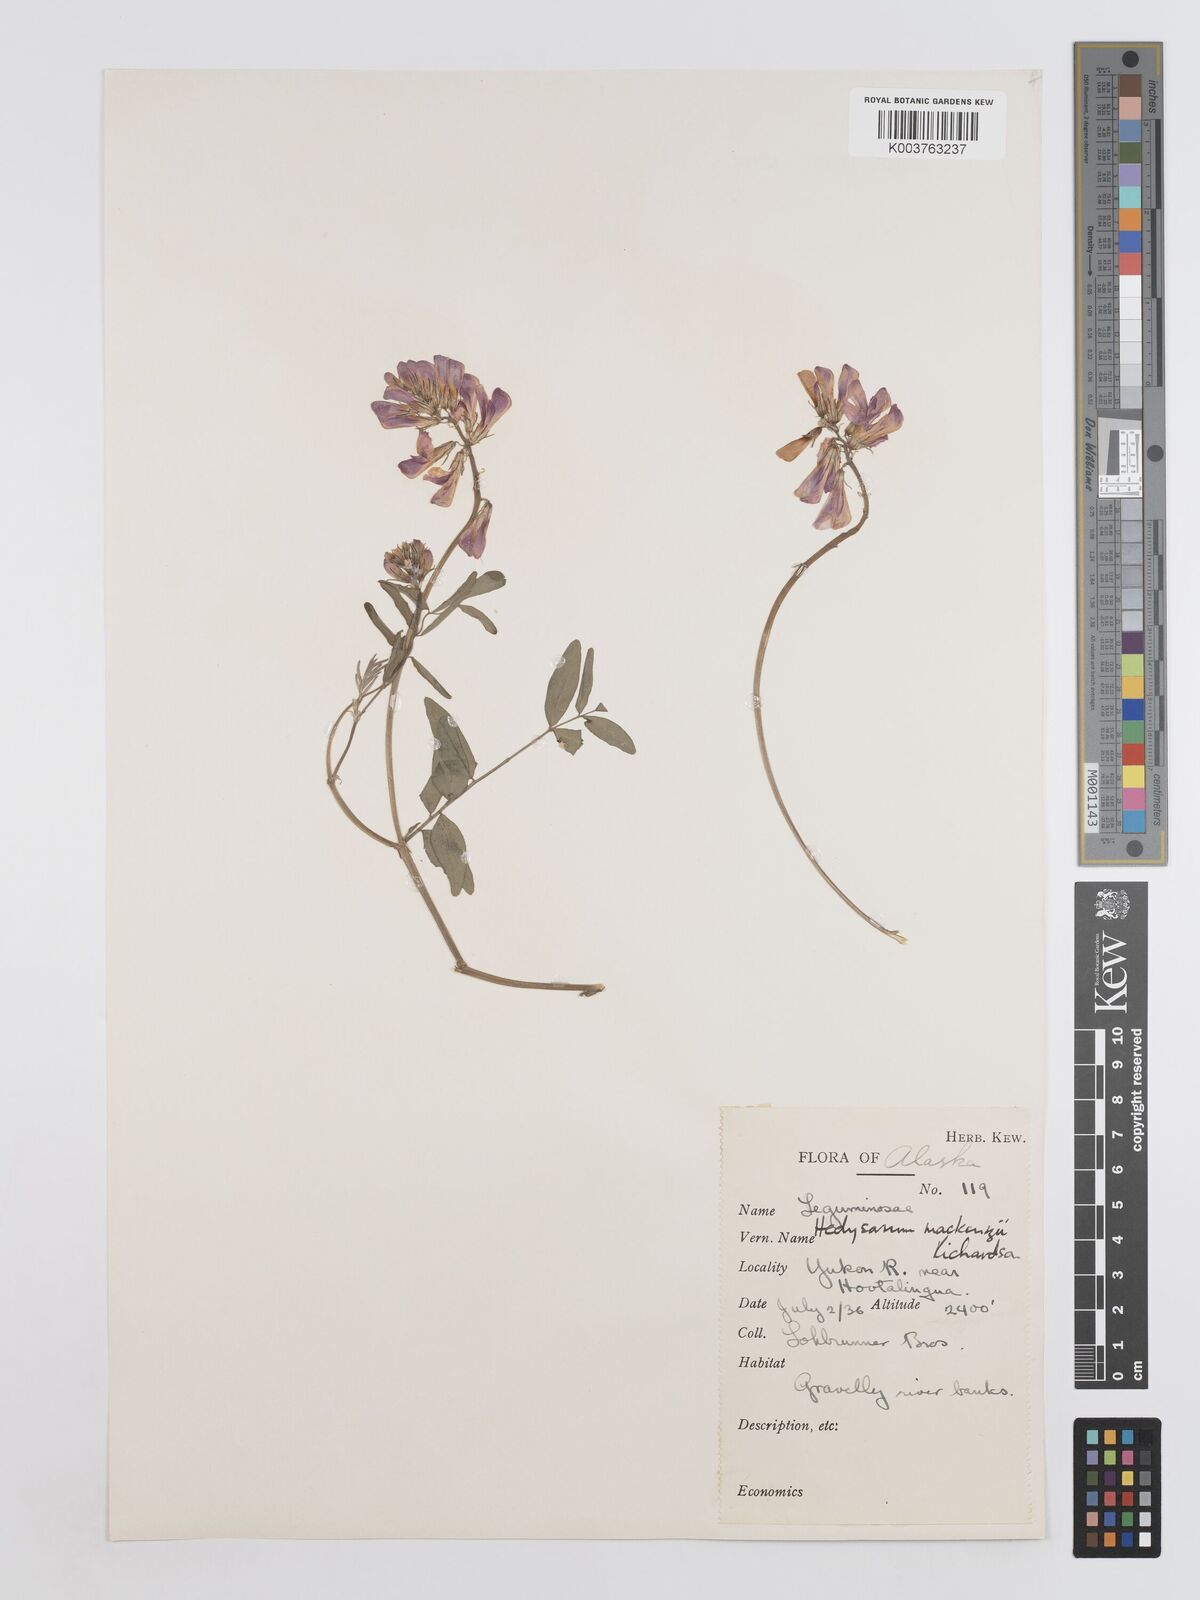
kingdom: Plantae
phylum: Tracheophyta
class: Magnoliopsida
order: Fabales
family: Fabaceae
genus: Hedysarum
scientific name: Hedysarum boreale
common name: Northern sweet-vetch
